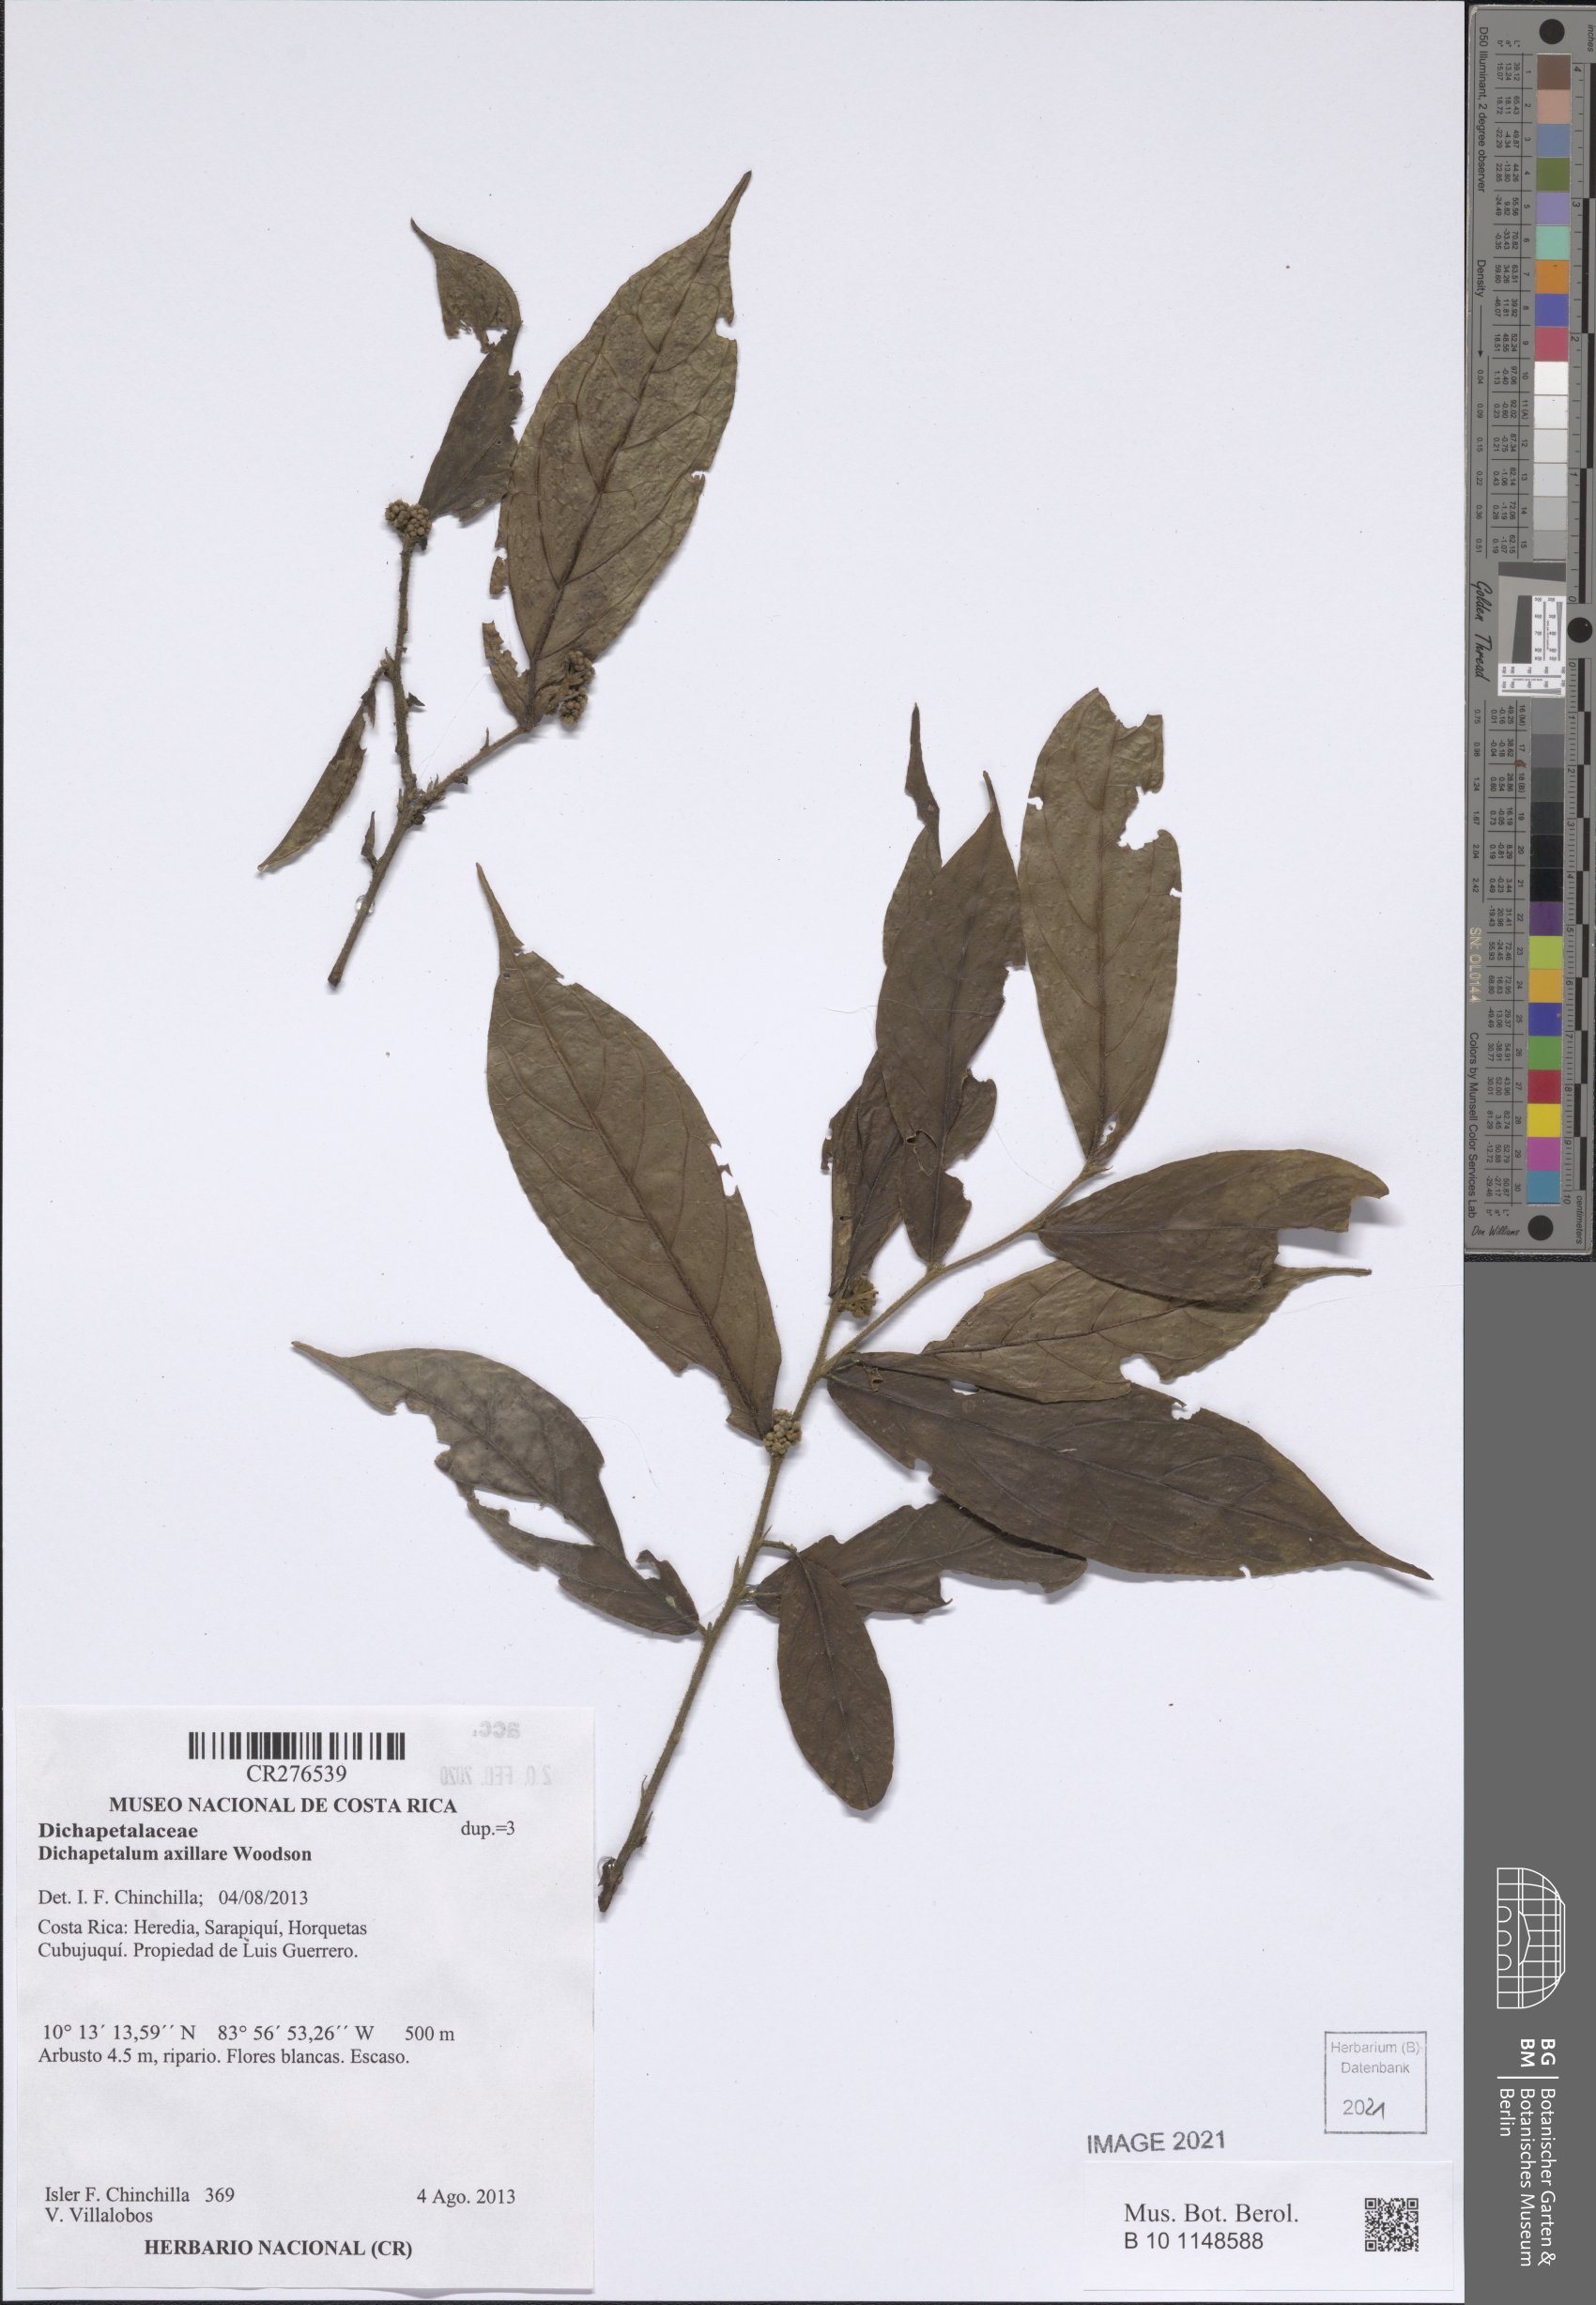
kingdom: Plantae
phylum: Tracheophyta
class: Magnoliopsida
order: Malpighiales
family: Dichapetalaceae
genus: Dichapetalum
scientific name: Dichapetalum axillare
